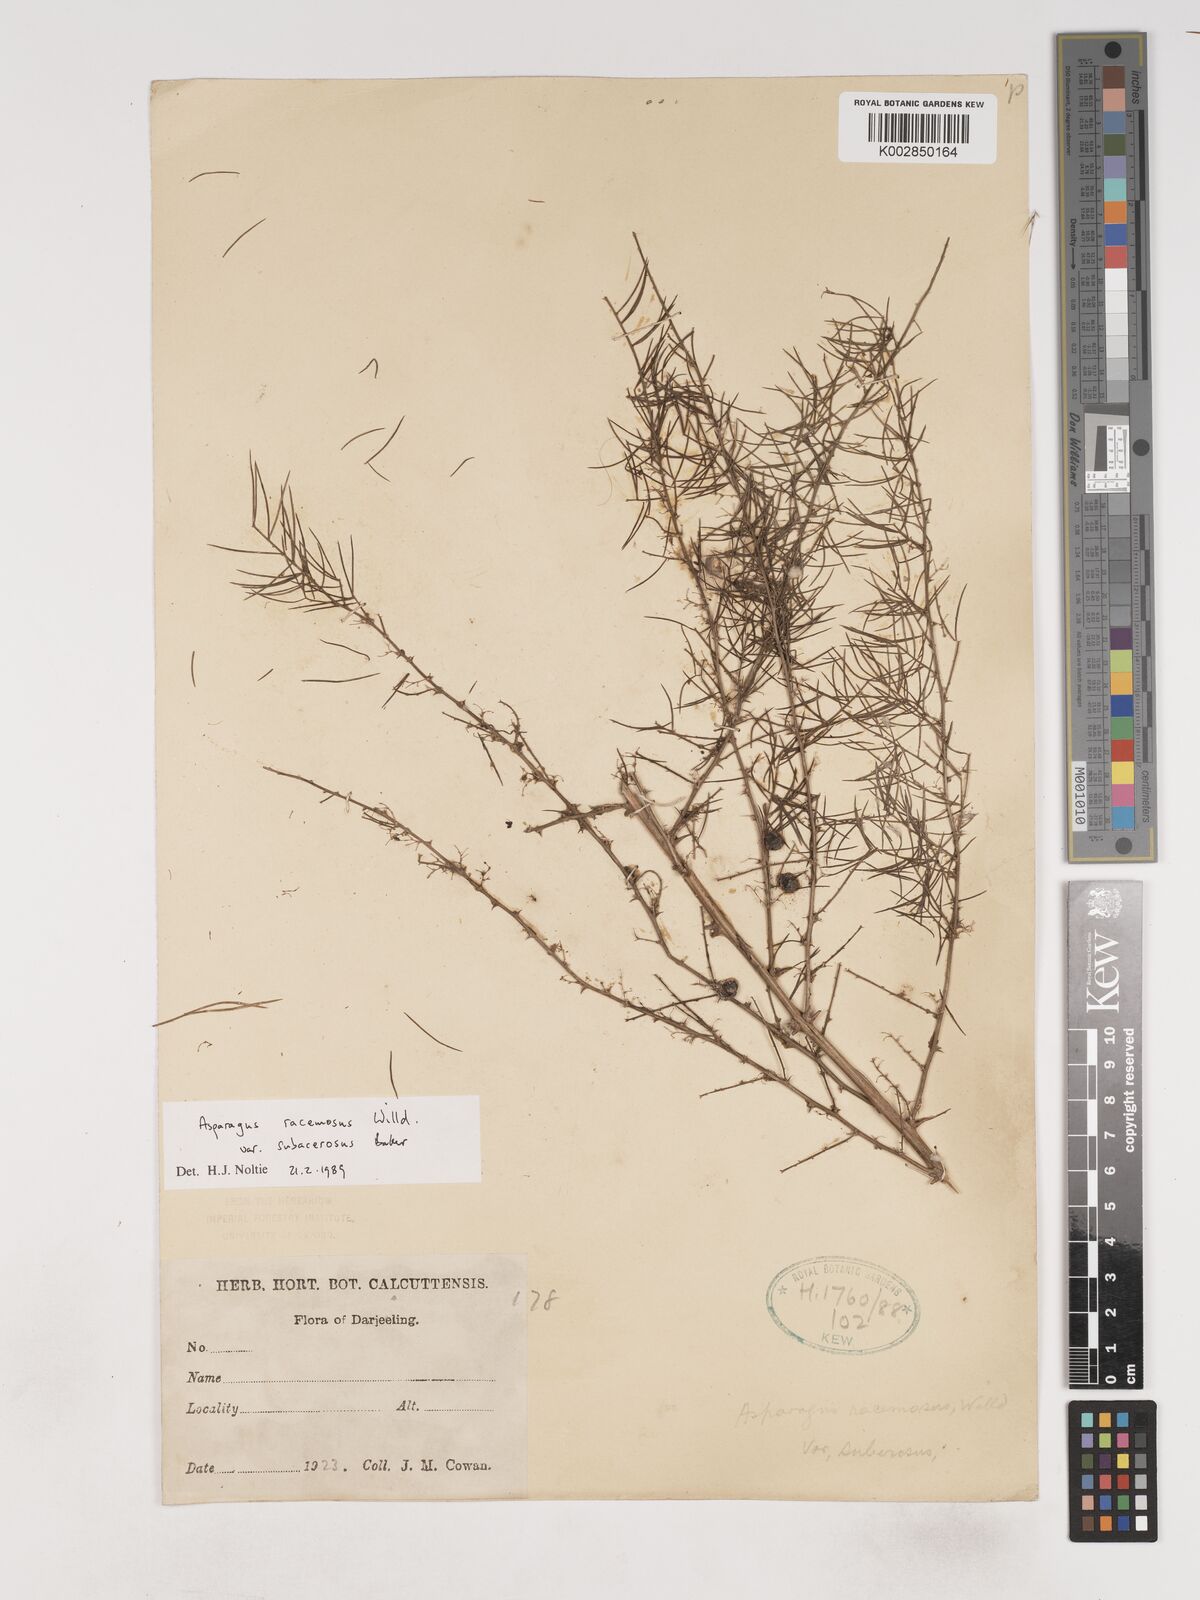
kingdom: Plantae
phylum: Tracheophyta
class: Liliopsida
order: Asparagales
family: Asparagaceae
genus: Asparagus
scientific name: Asparagus racemosus
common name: Asparagus-fern
